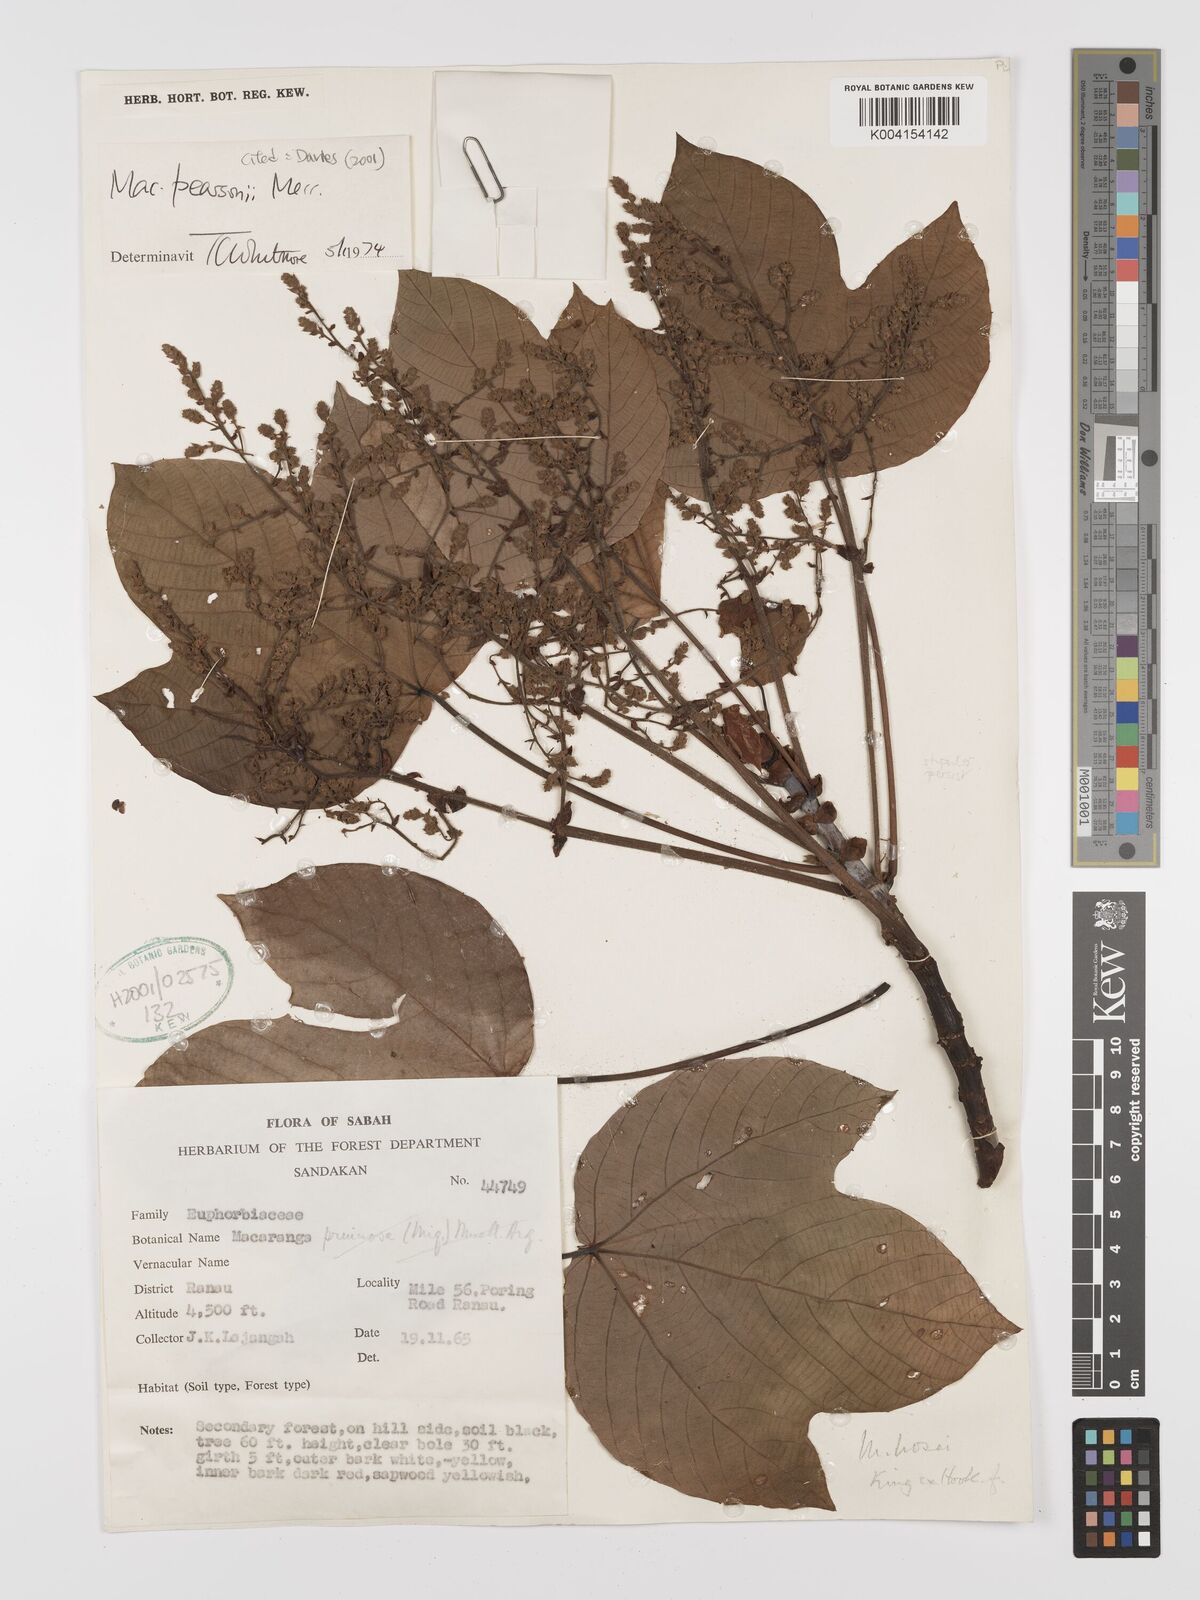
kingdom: Plantae
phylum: Tracheophyta
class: Magnoliopsida
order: Malpighiales
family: Euphorbiaceae
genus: Macaranga
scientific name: Macaranga pearsonii
